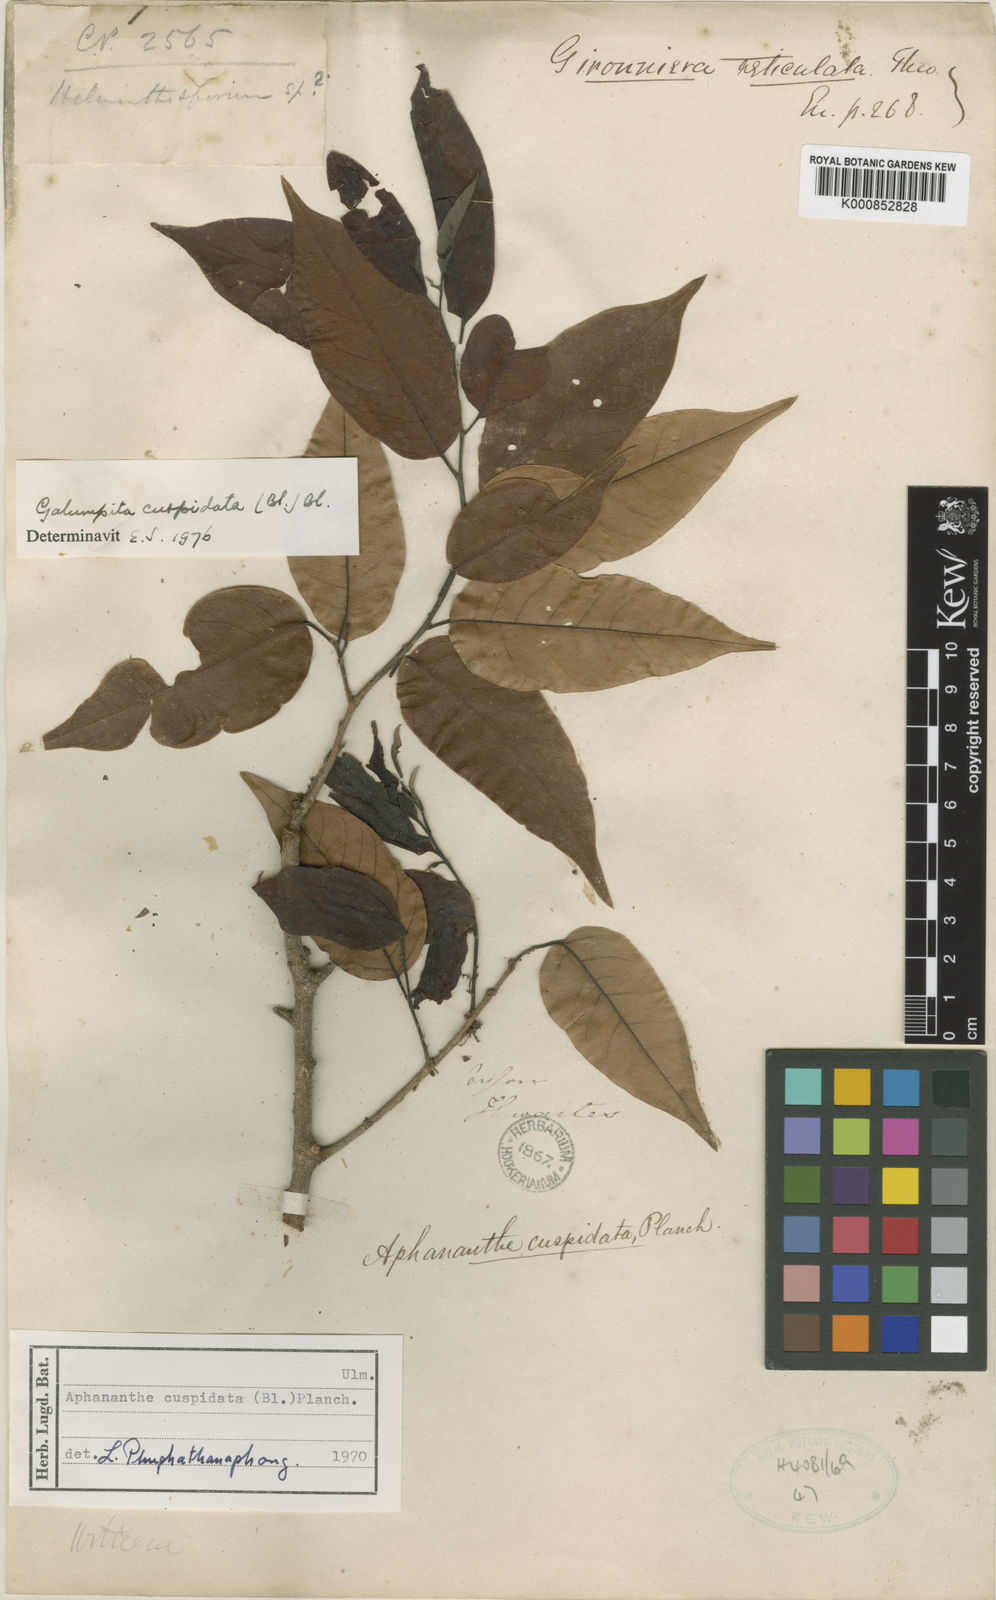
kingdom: Plantae
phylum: Tracheophyta
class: Magnoliopsida
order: Rosales
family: Cannabaceae
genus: Aphananthe
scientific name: Aphananthe cuspidata
